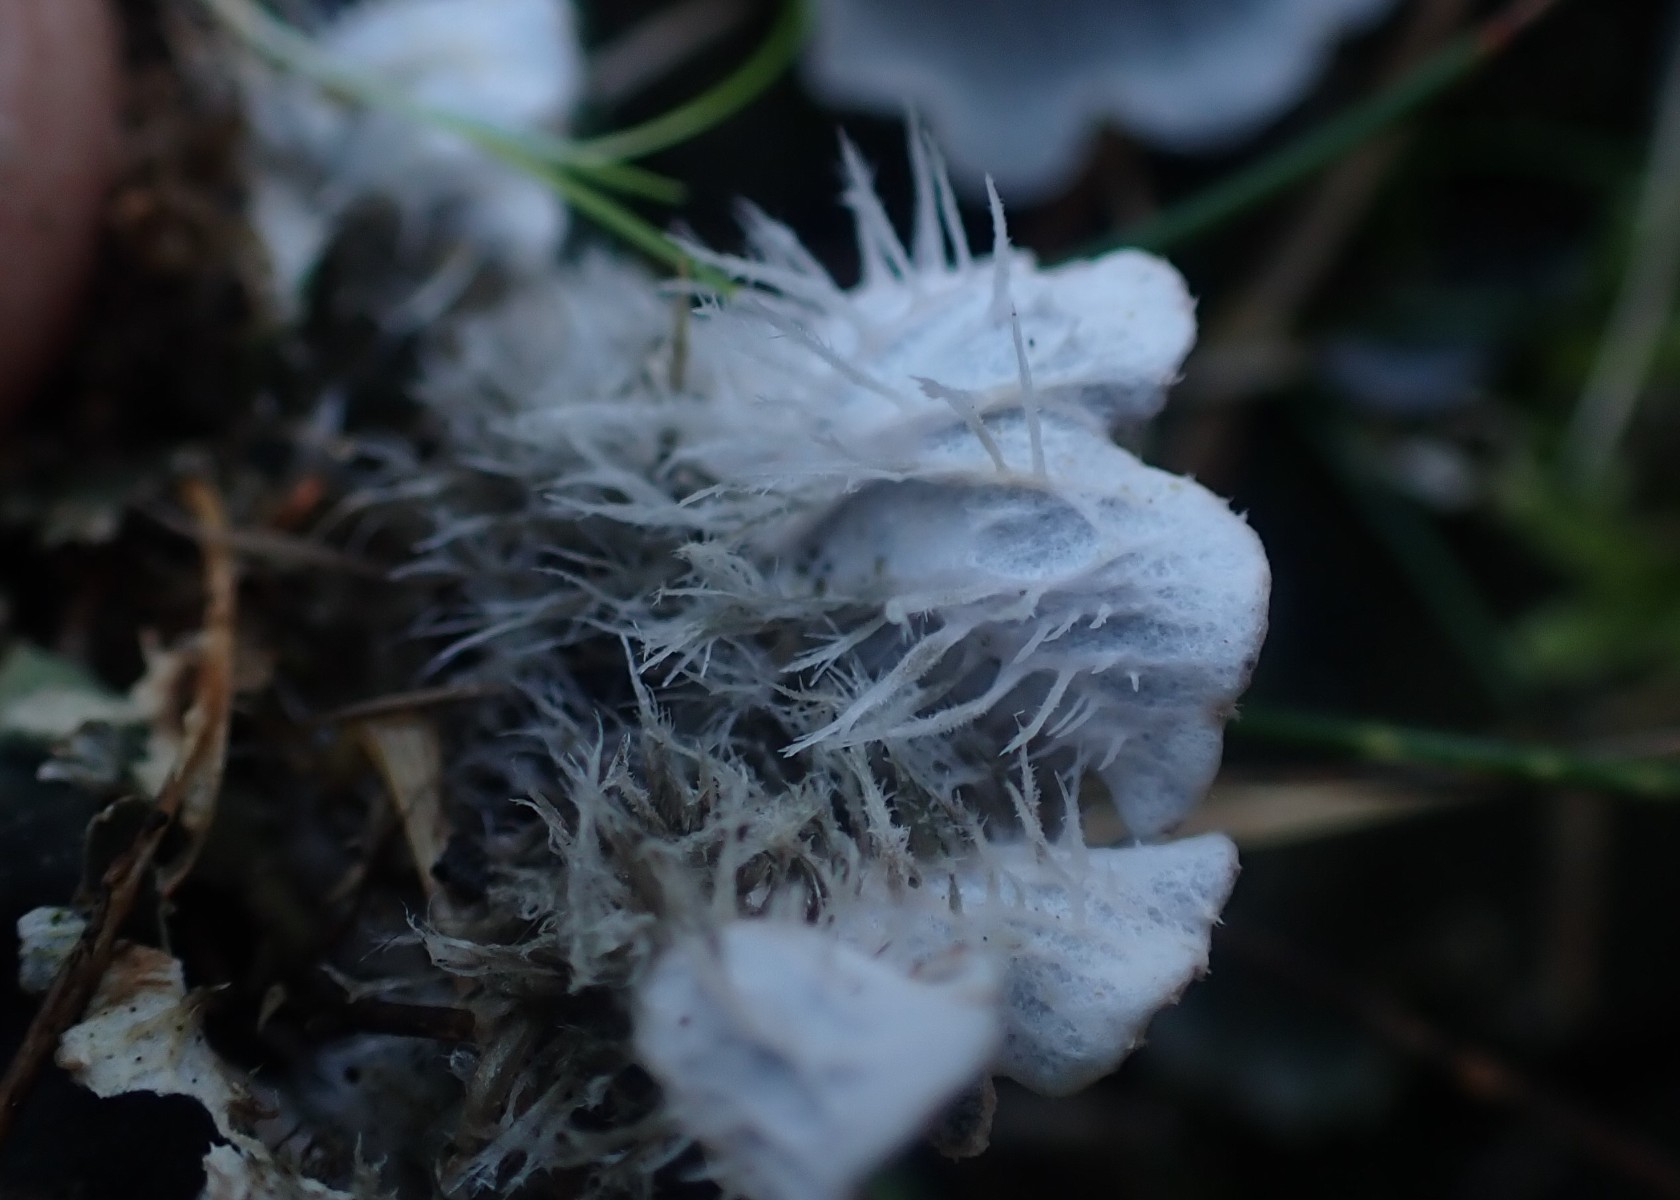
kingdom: Fungi
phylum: Ascomycota
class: Lecanoromycetes
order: Peltigerales
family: Peltigeraceae
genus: Peltigera
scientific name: Peltigera membranacea
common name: tynd skjoldlav
